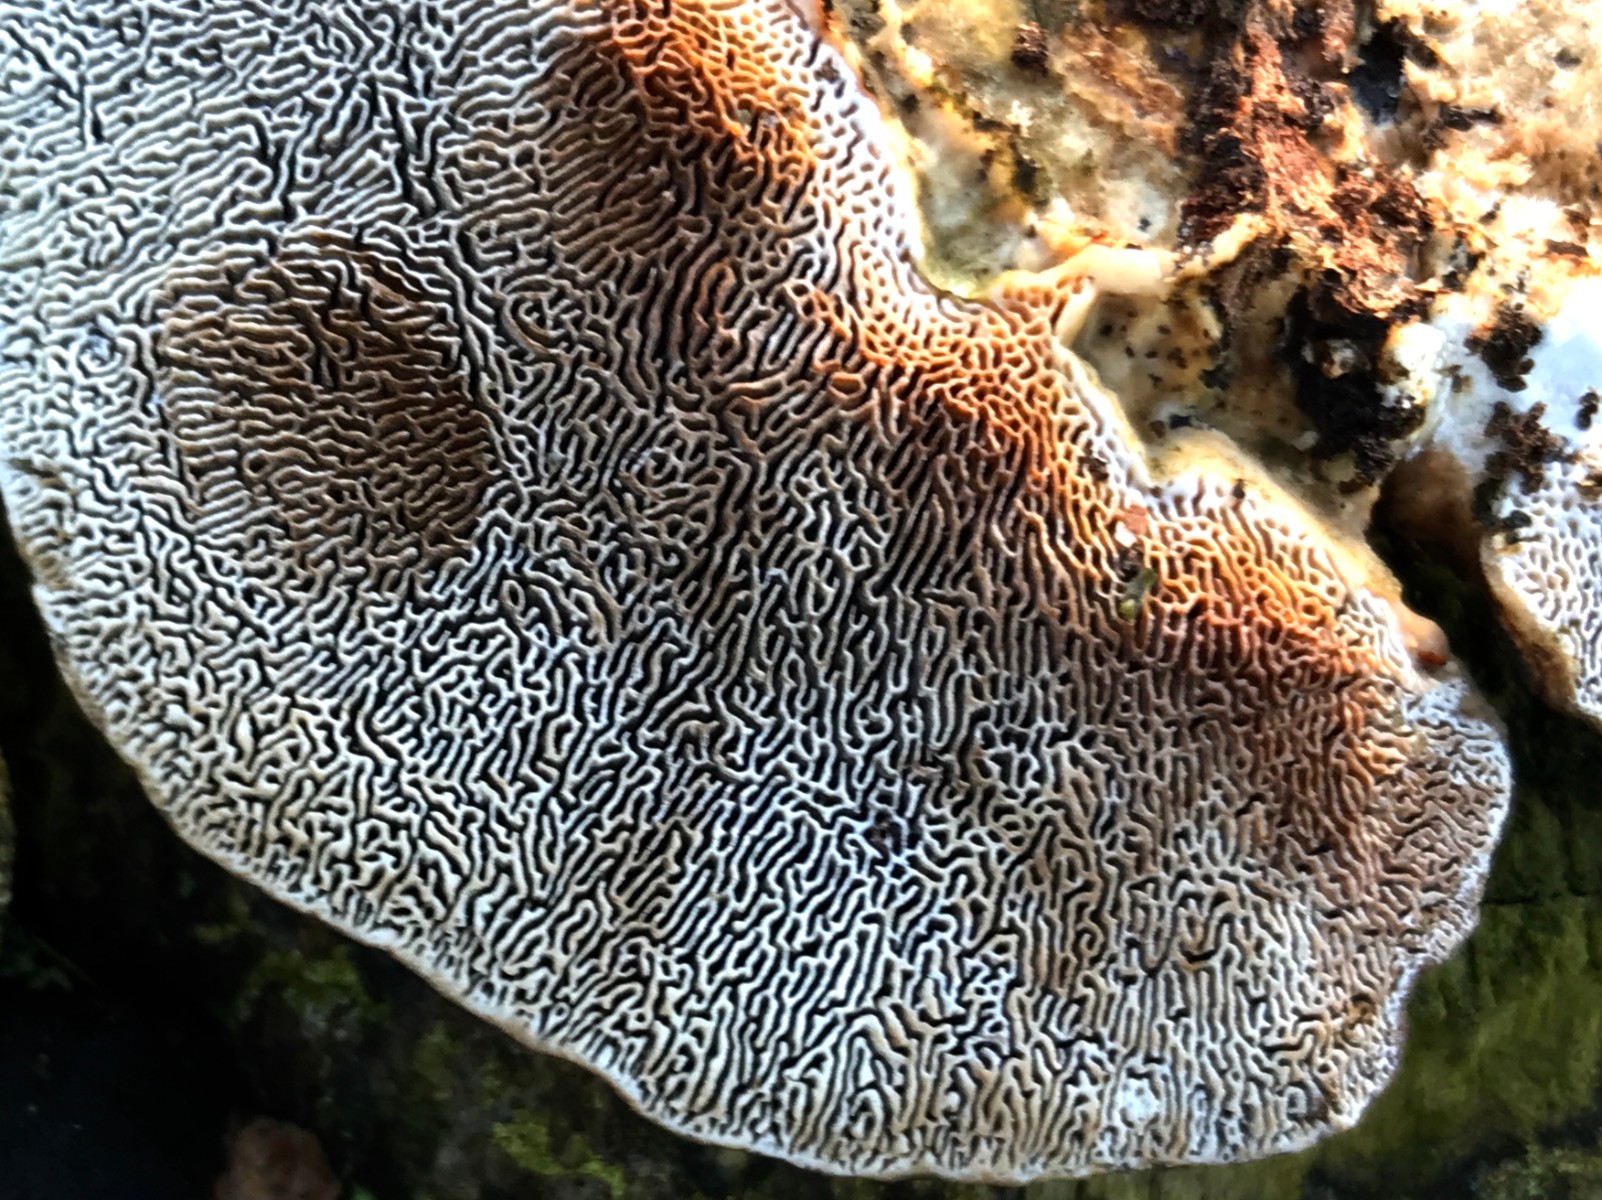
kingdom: Fungi
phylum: Basidiomycota
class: Agaricomycetes
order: Polyporales
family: Polyporaceae
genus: Daedaleopsis
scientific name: Daedaleopsis confragosa
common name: rødmende læderporesvamp
